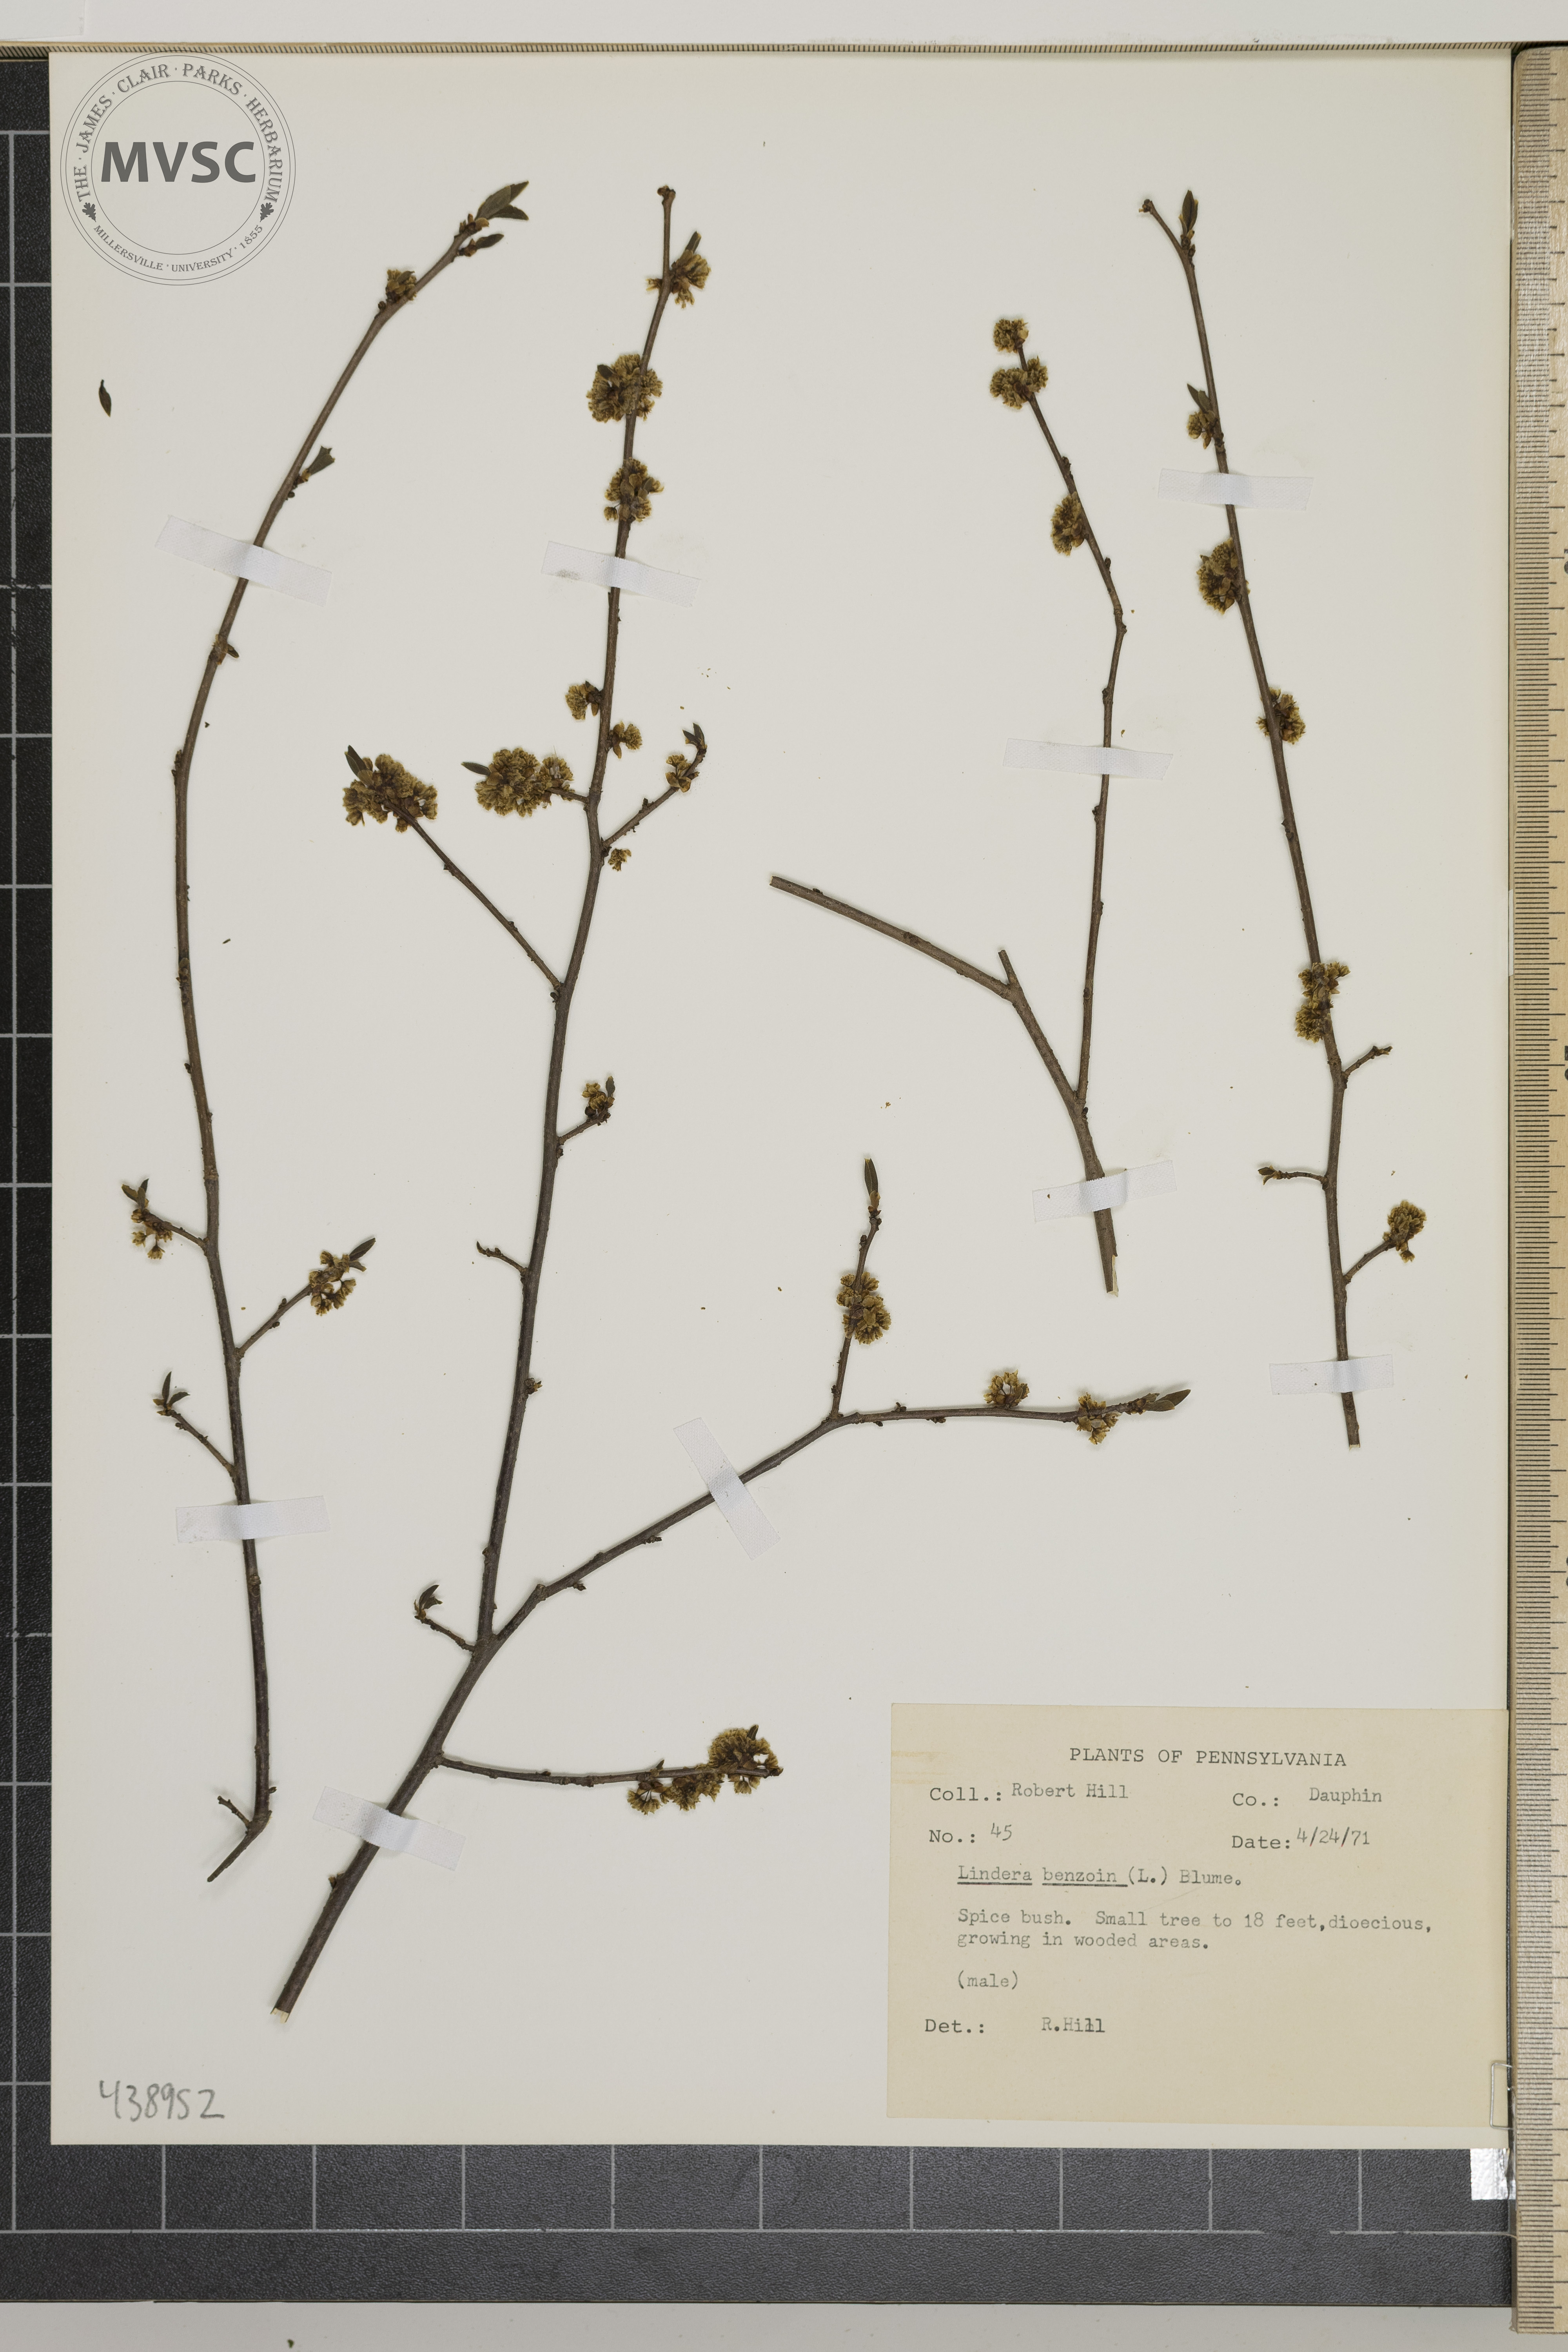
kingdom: Plantae
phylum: Tracheophyta
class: Magnoliopsida
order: Laurales
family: Lauraceae
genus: Lindera
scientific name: Lindera benzoin
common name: Spicebush
